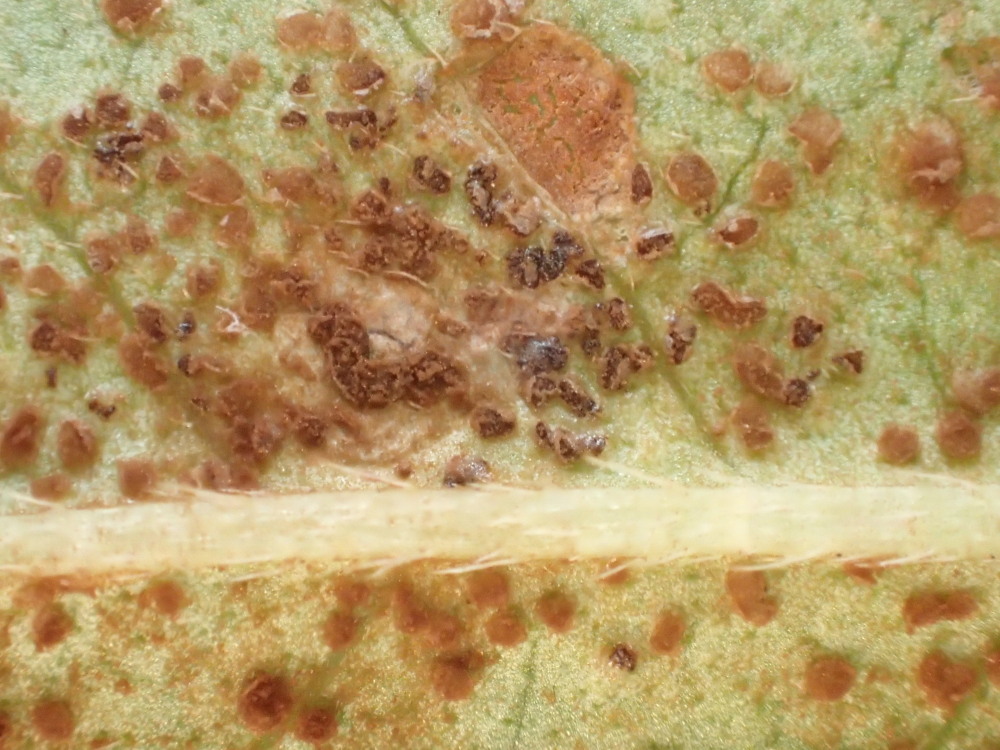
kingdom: Fungi
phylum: Basidiomycota
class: Pucciniomycetes
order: Pucciniales
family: Pucciniaceae
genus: Puccinia
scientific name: Puccinia polygoni-amphibii
